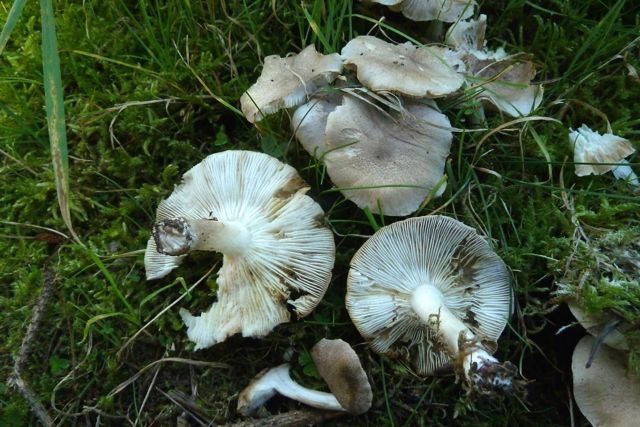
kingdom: Fungi
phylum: Basidiomycota
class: Agaricomycetes
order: Agaricales
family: Tricholomataceae
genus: Tricholoma
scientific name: Tricholoma scalpturatum
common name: gulplettet ridderhat
